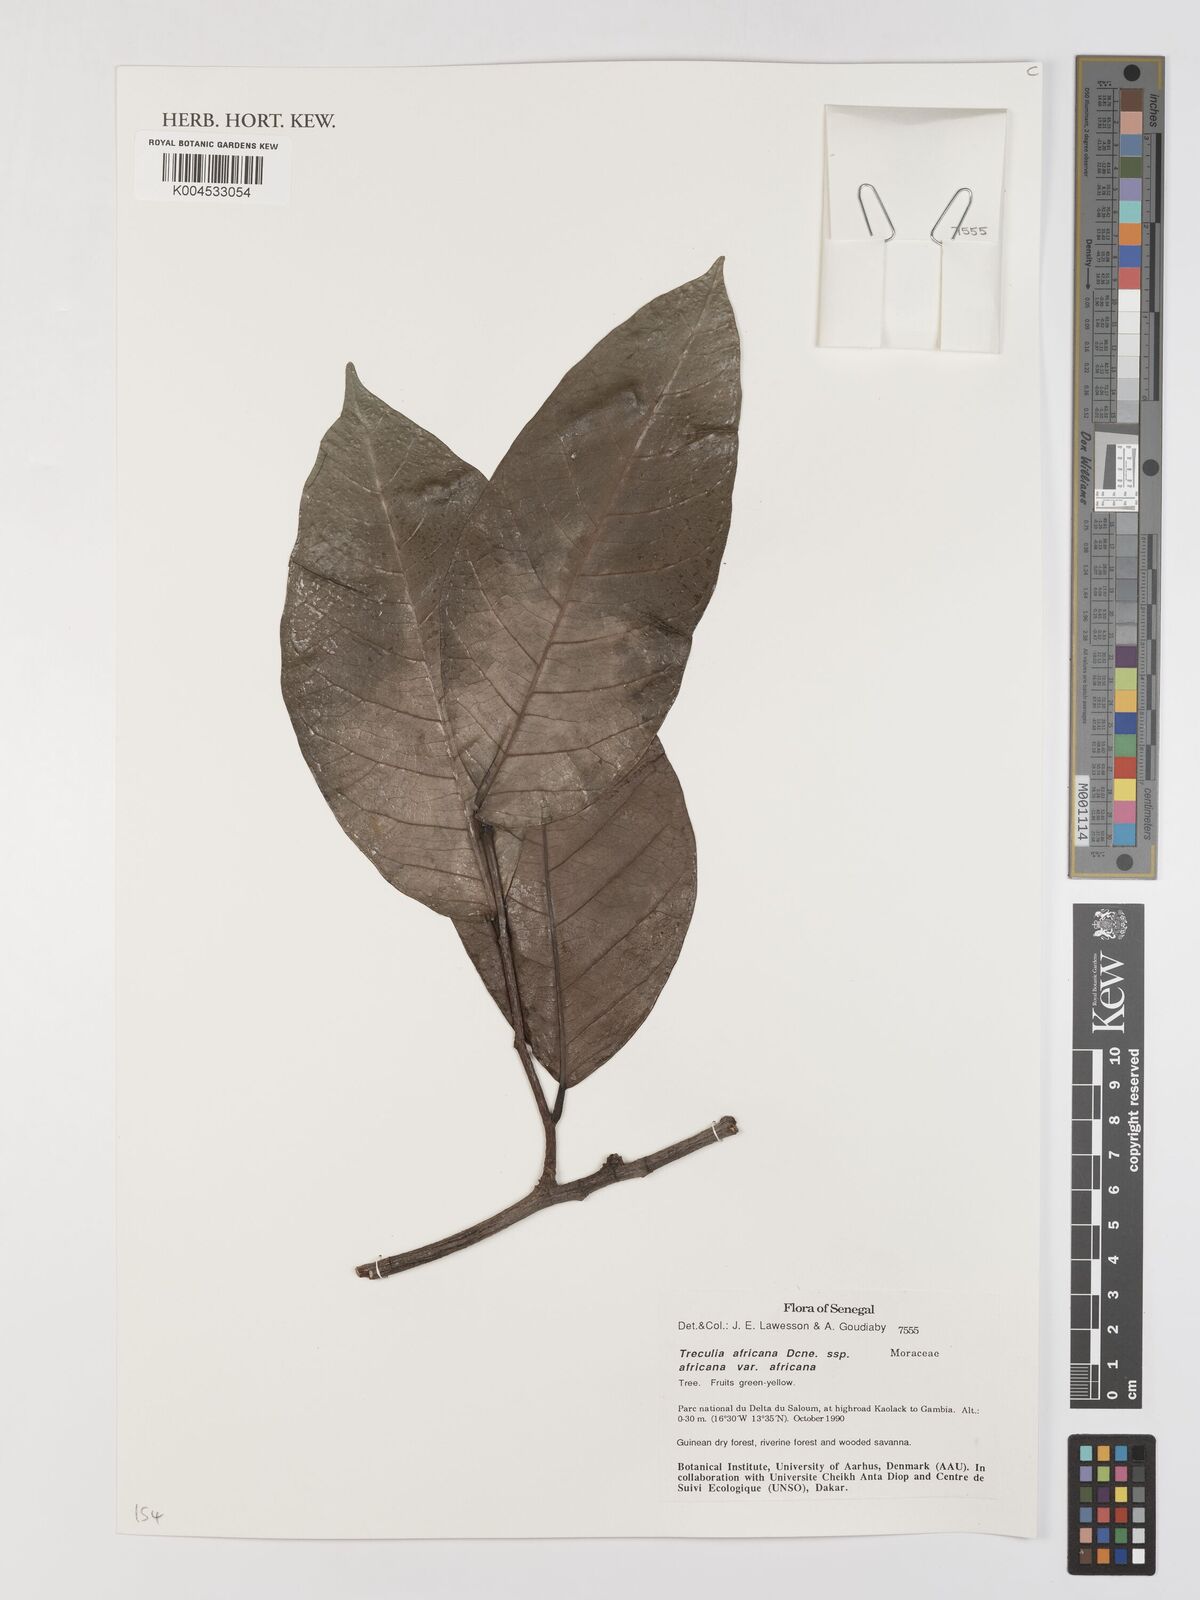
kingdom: Plantae
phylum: Tracheophyta
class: Magnoliopsida
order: Rosales
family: Moraceae
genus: Treculia
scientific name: Treculia africana
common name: African breadfruit
